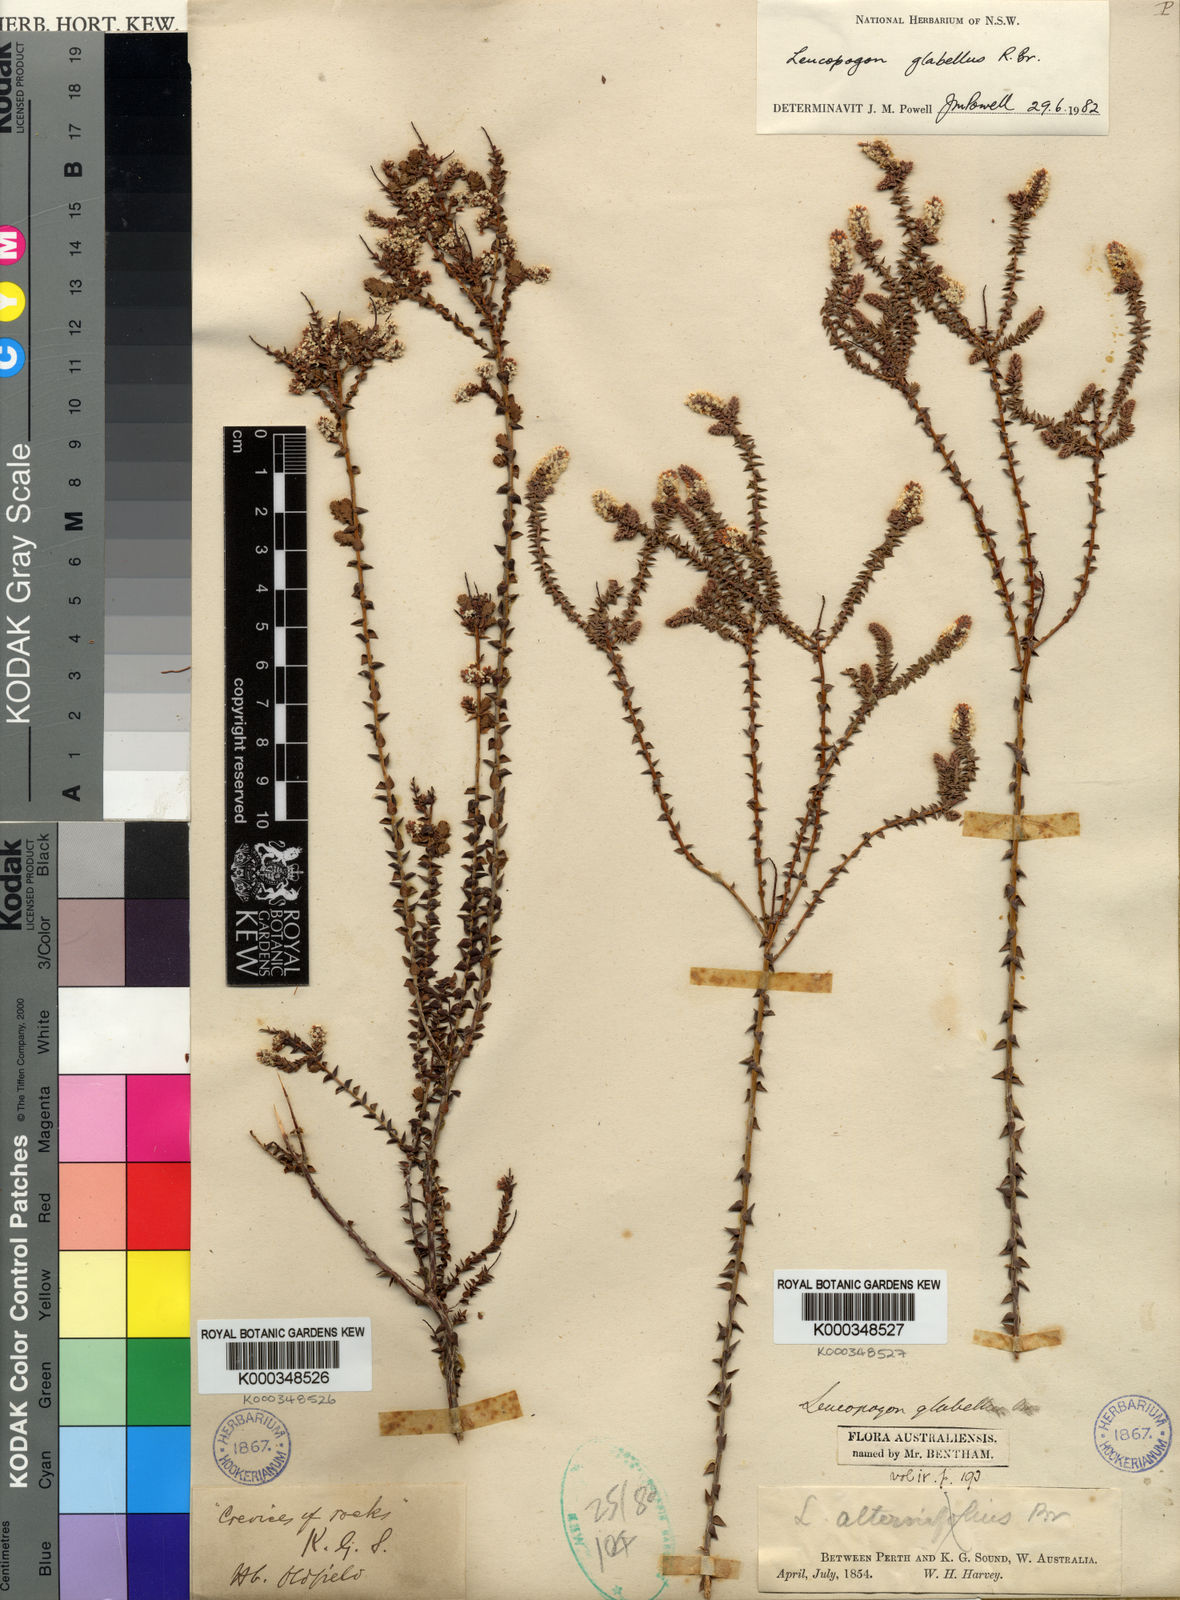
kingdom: Plantae
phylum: Tracheophyta
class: Magnoliopsida
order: Ericales
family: Ericaceae
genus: Leucopogon
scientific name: Leucopogon glabellus
